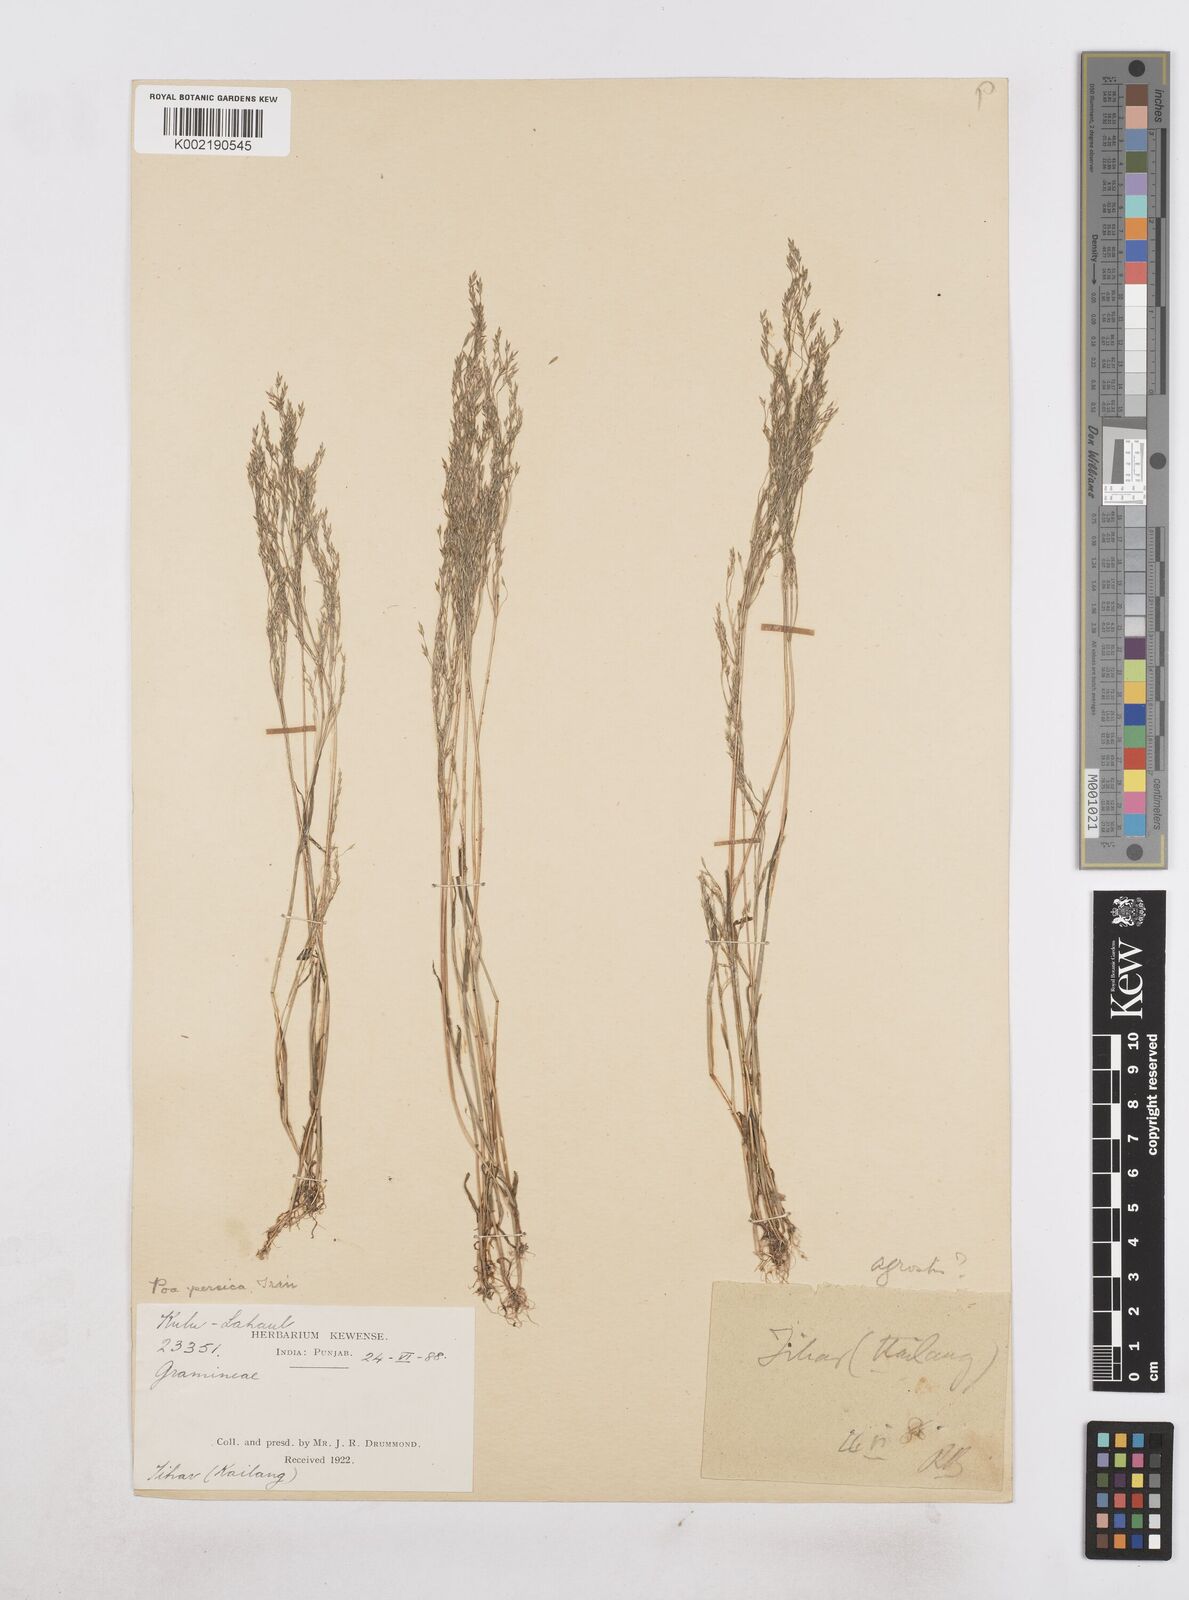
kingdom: Plantae
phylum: Tracheophyta
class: Liliopsida
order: Poales
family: Poaceae
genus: Poa
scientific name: Poa diaphora
